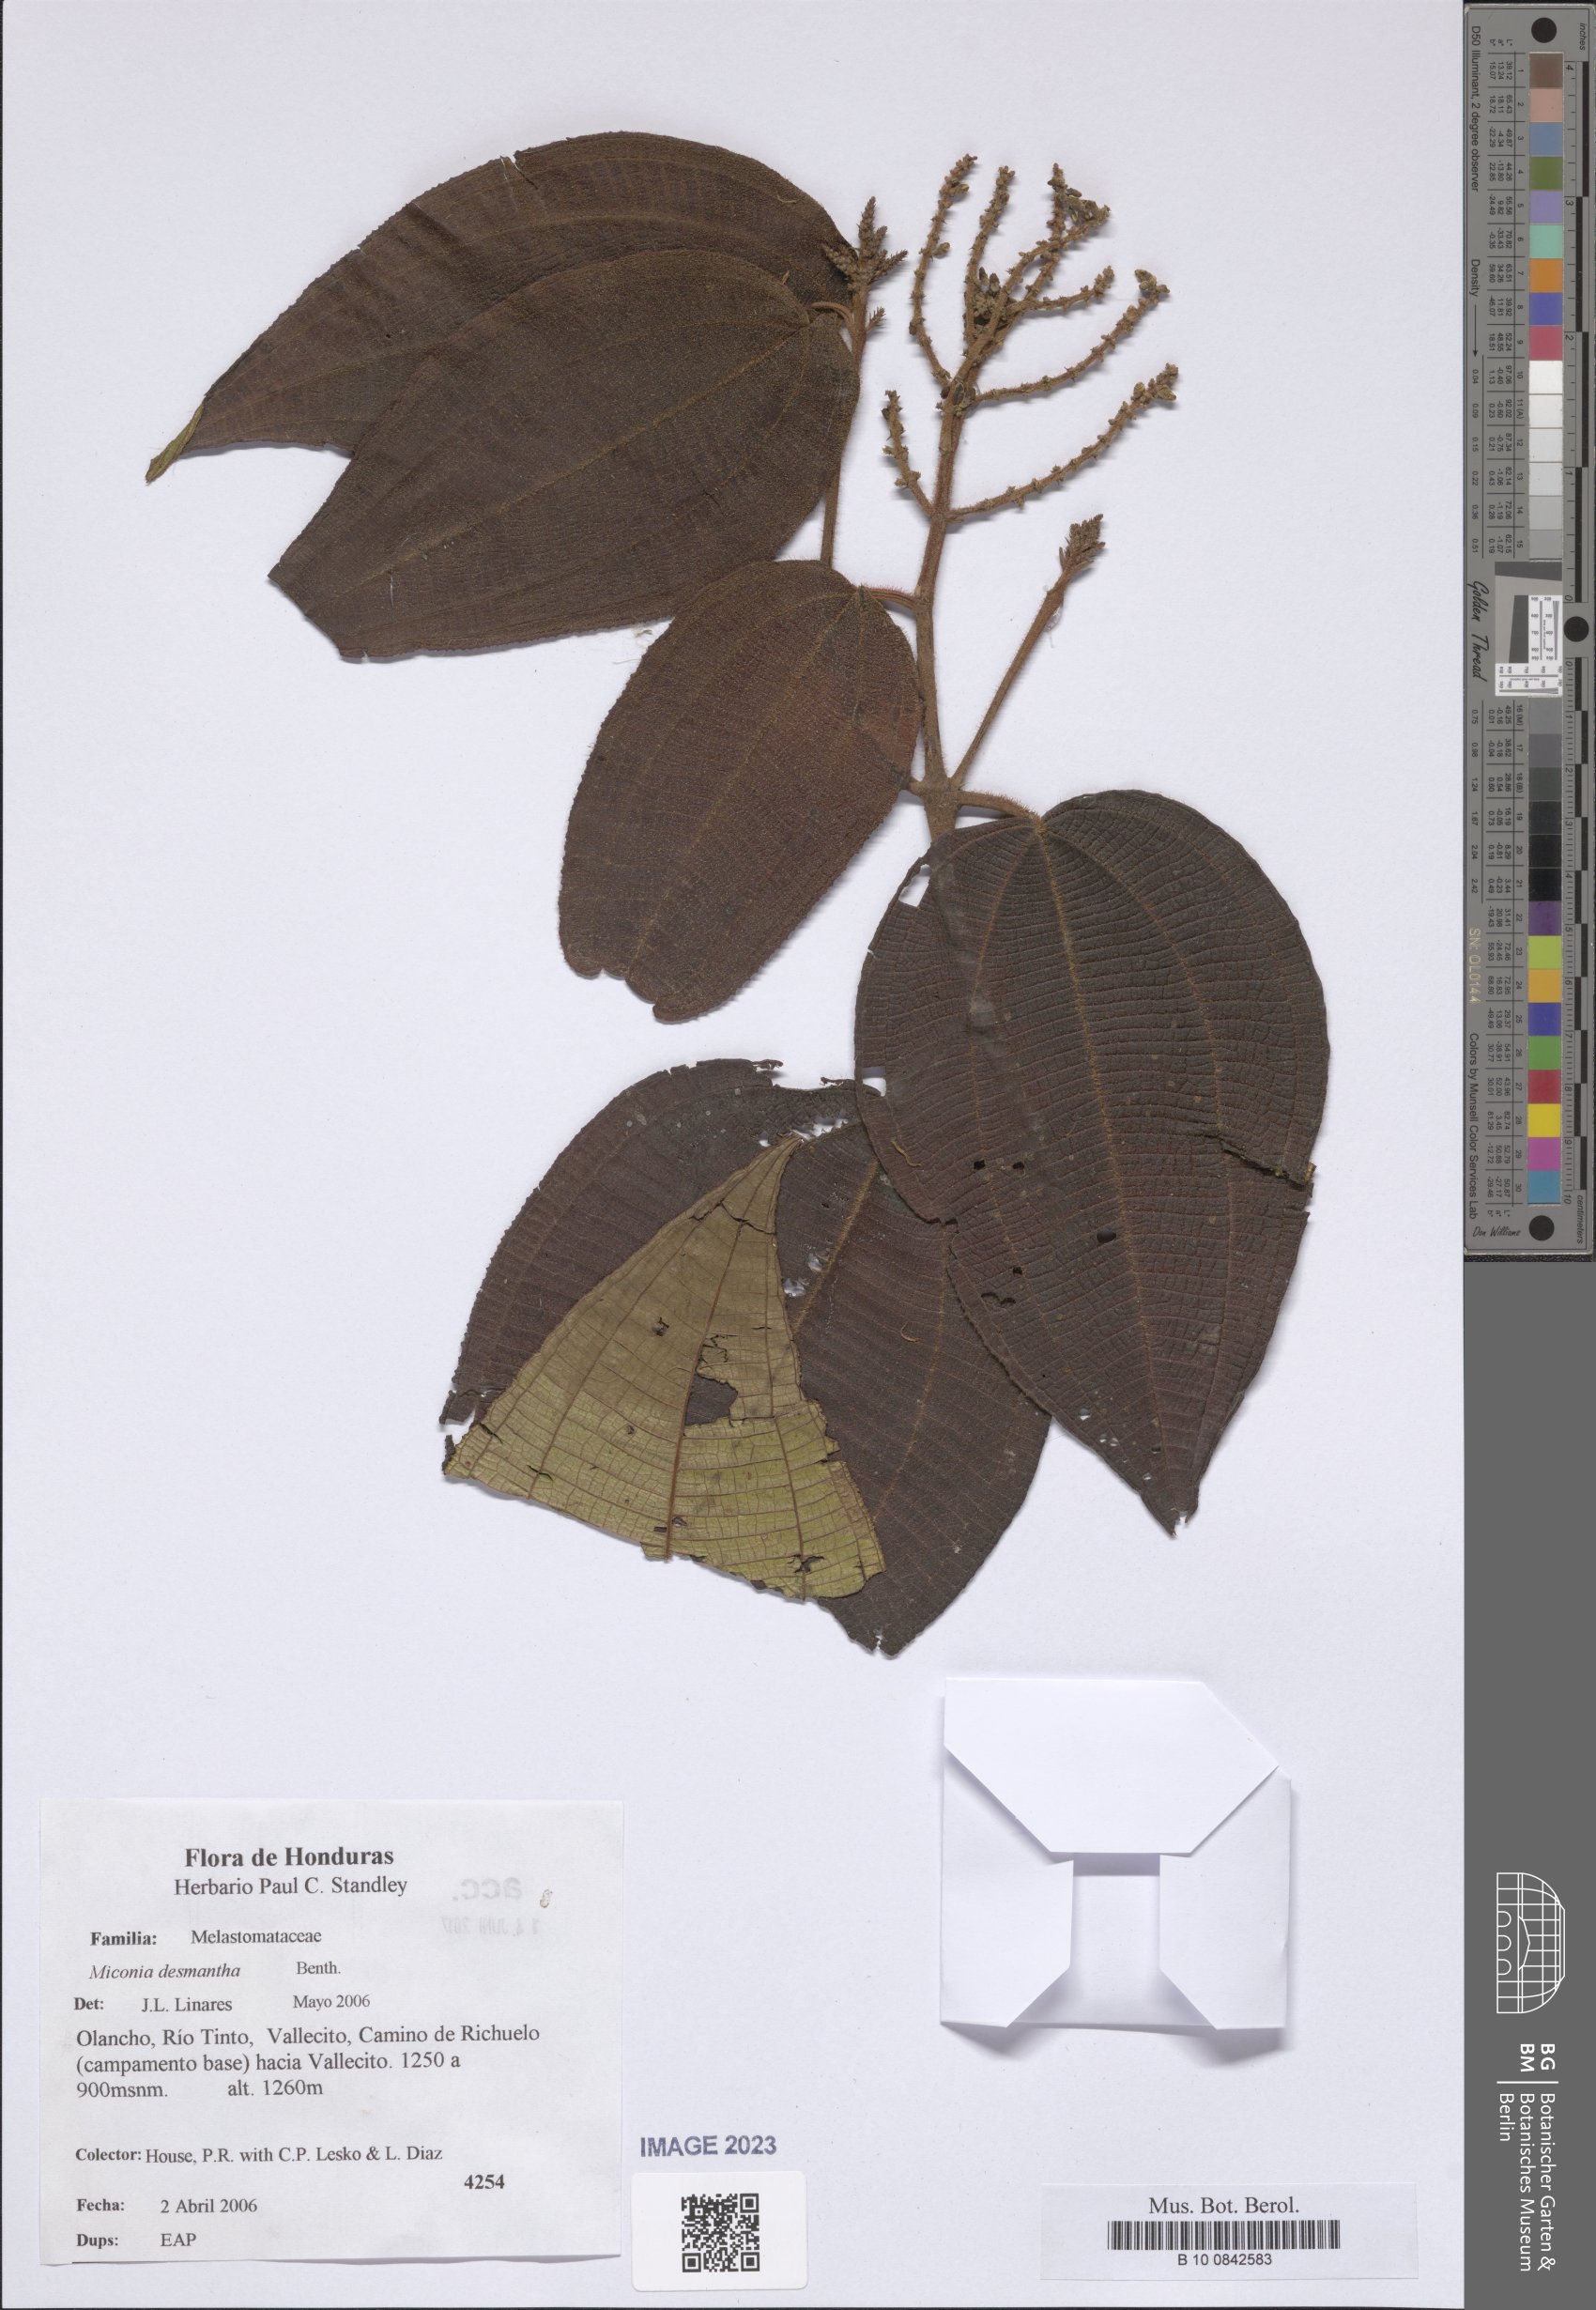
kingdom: Plantae
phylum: Tracheophyta
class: Magnoliopsida
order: Myrtales
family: Melastomataceae
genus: Miconia
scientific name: Miconia desmantha
